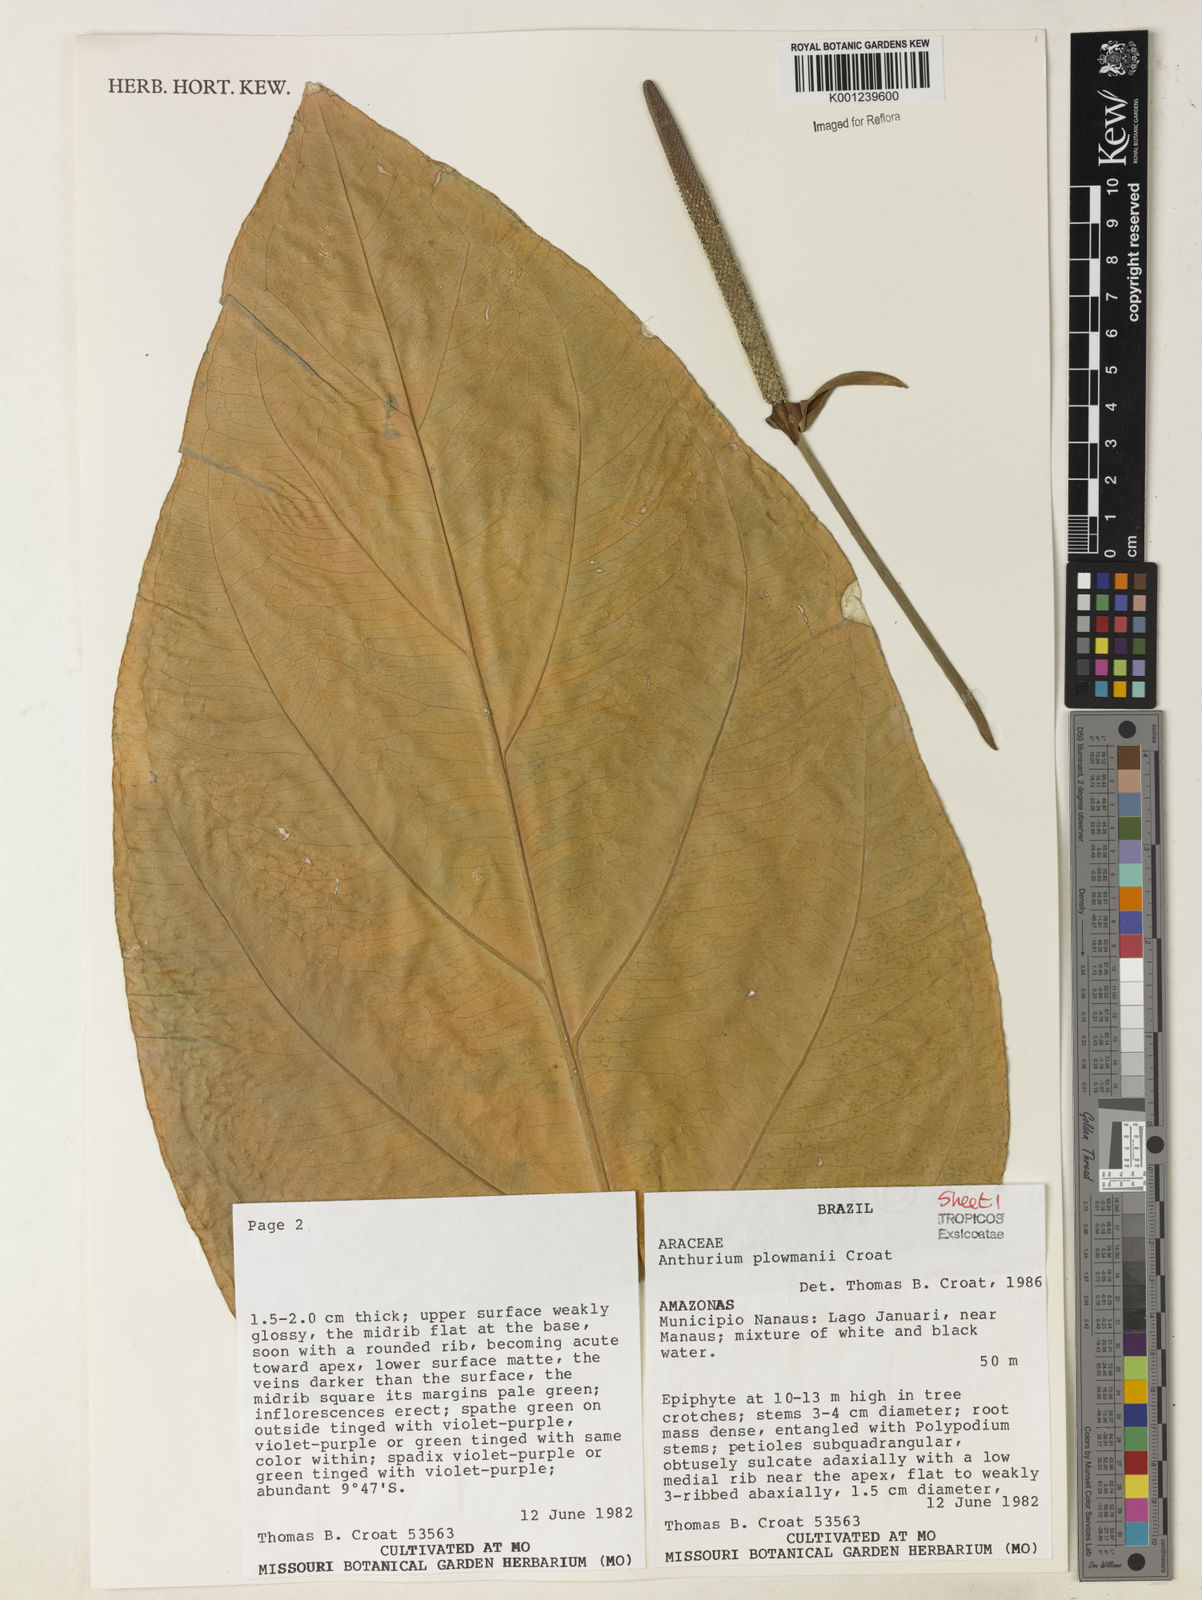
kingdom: Plantae
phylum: Tracheophyta
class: Liliopsida
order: Alismatales
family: Araceae
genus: Anthurium
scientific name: Anthurium plowmanii
